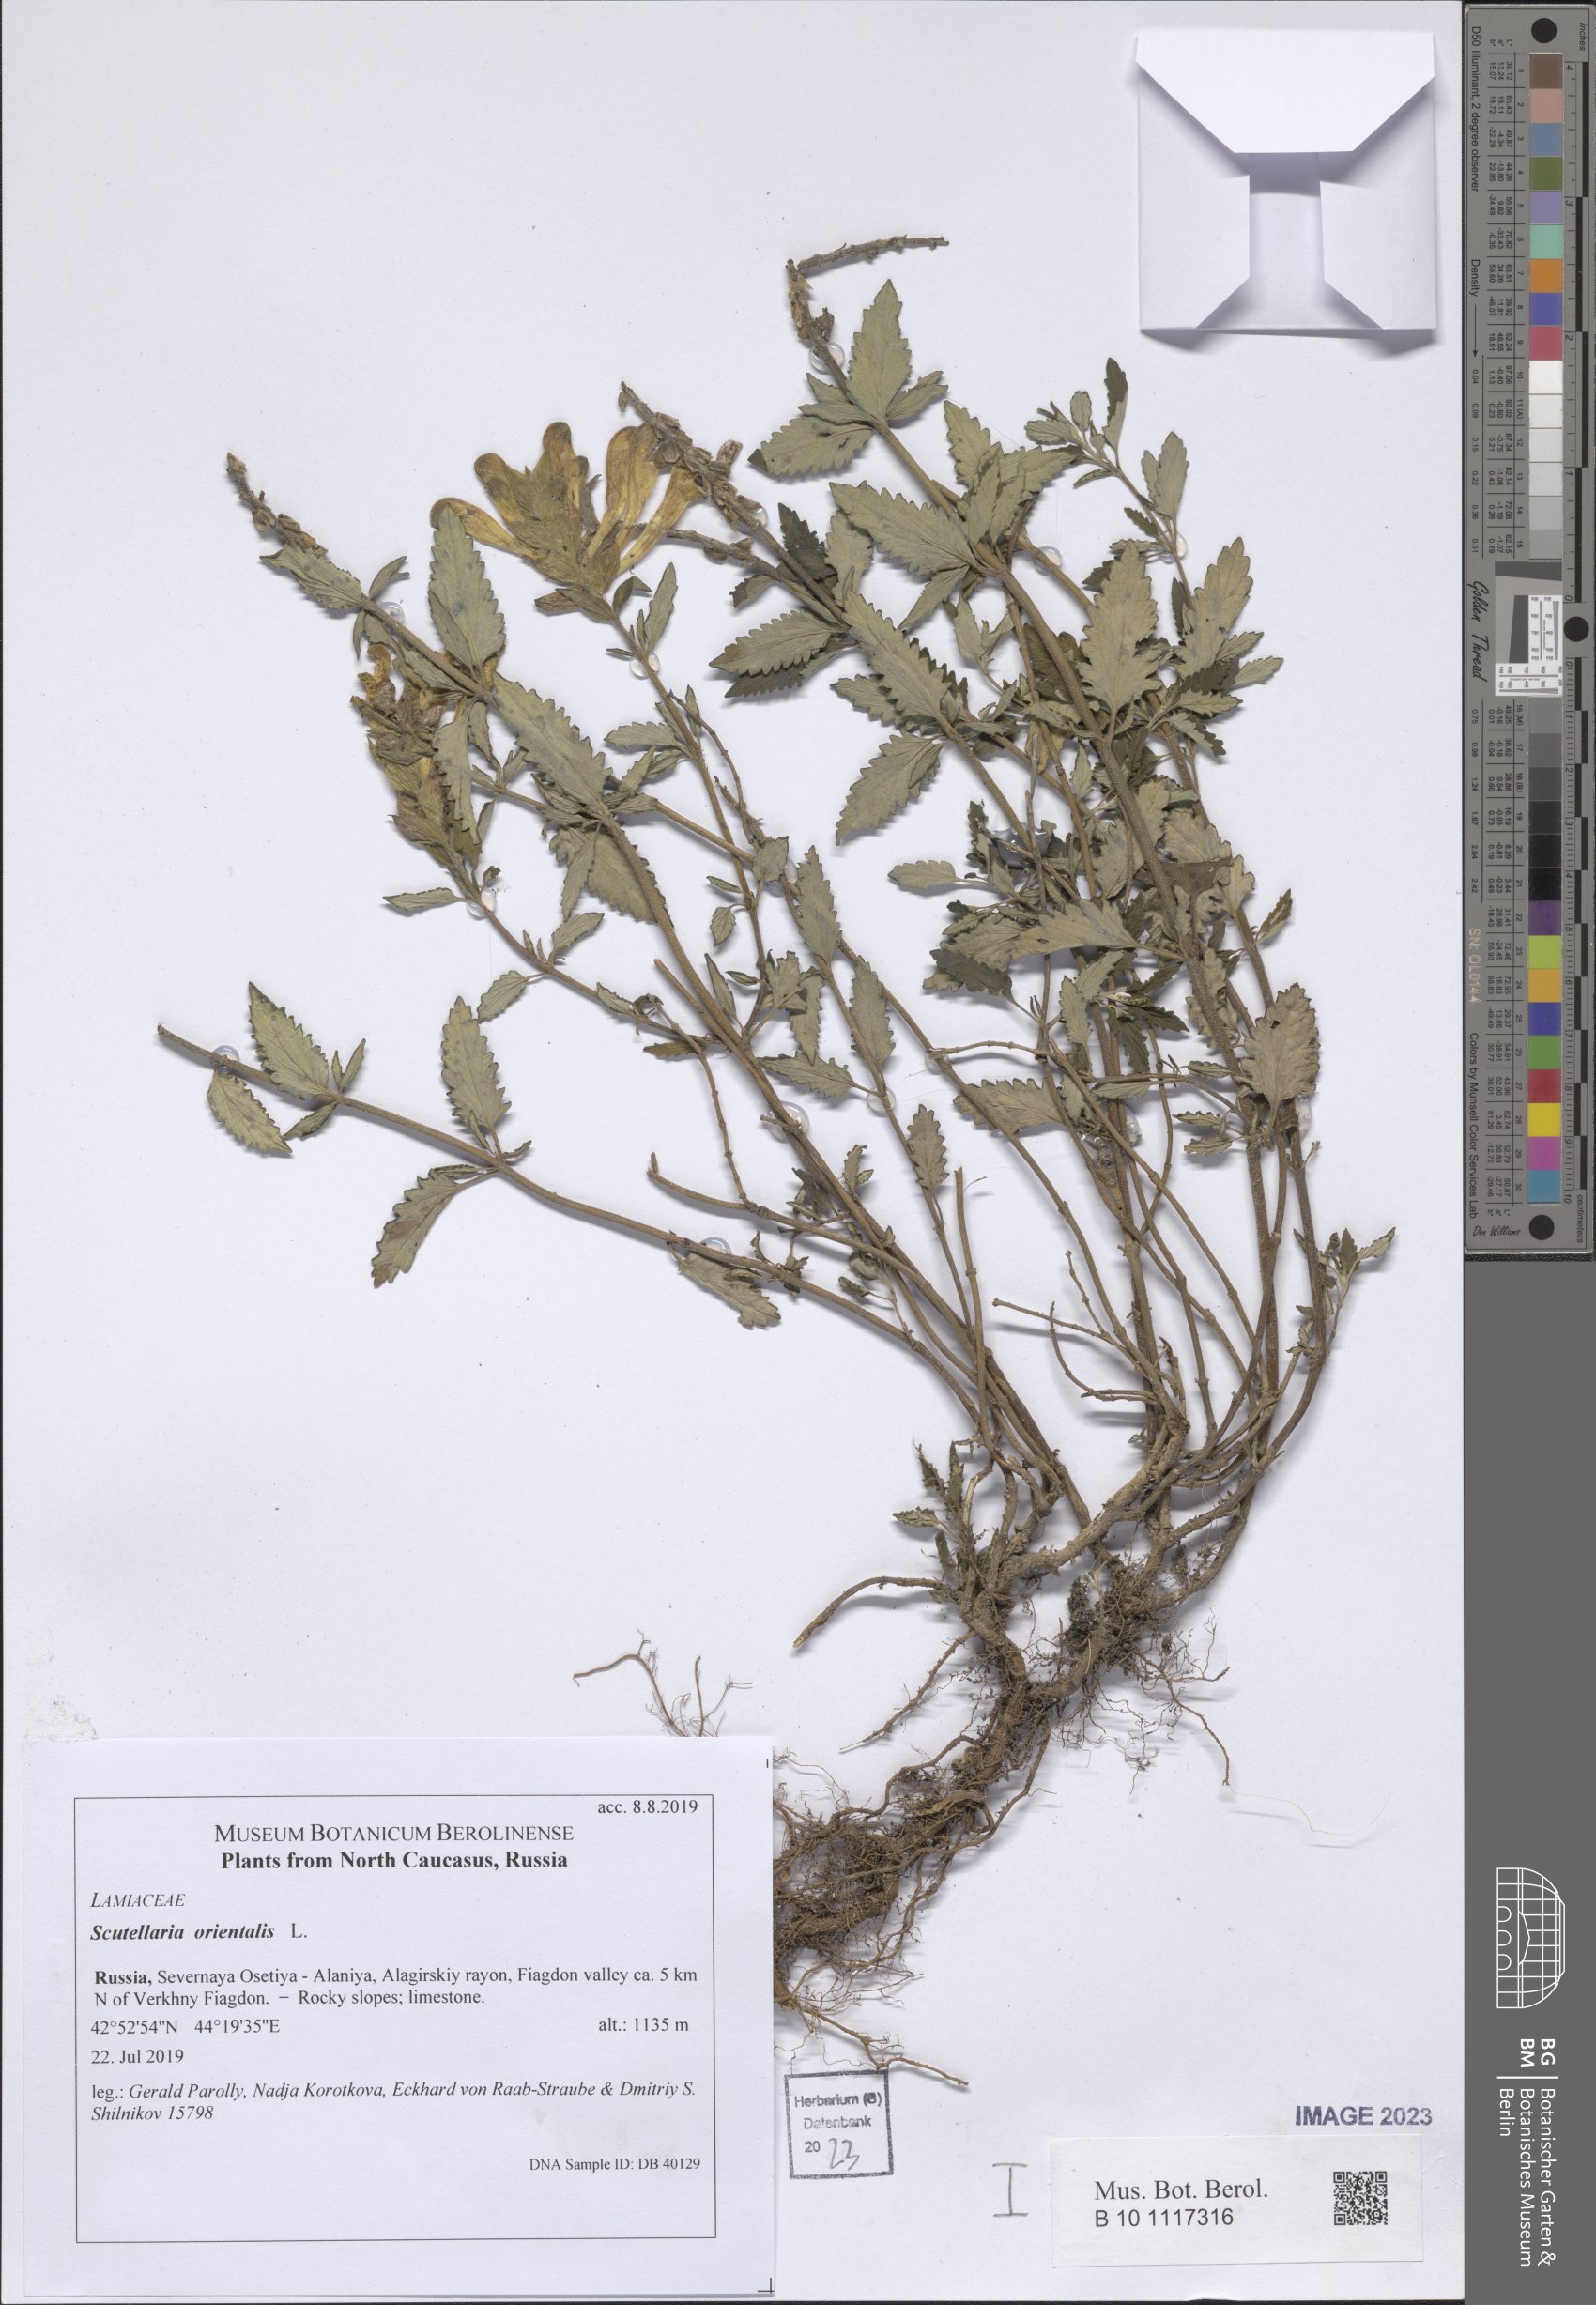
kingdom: Plantae
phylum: Tracheophyta
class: Magnoliopsida
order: Lamiales
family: Lamiaceae
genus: Scutellaria
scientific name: Scutellaria orientalis
